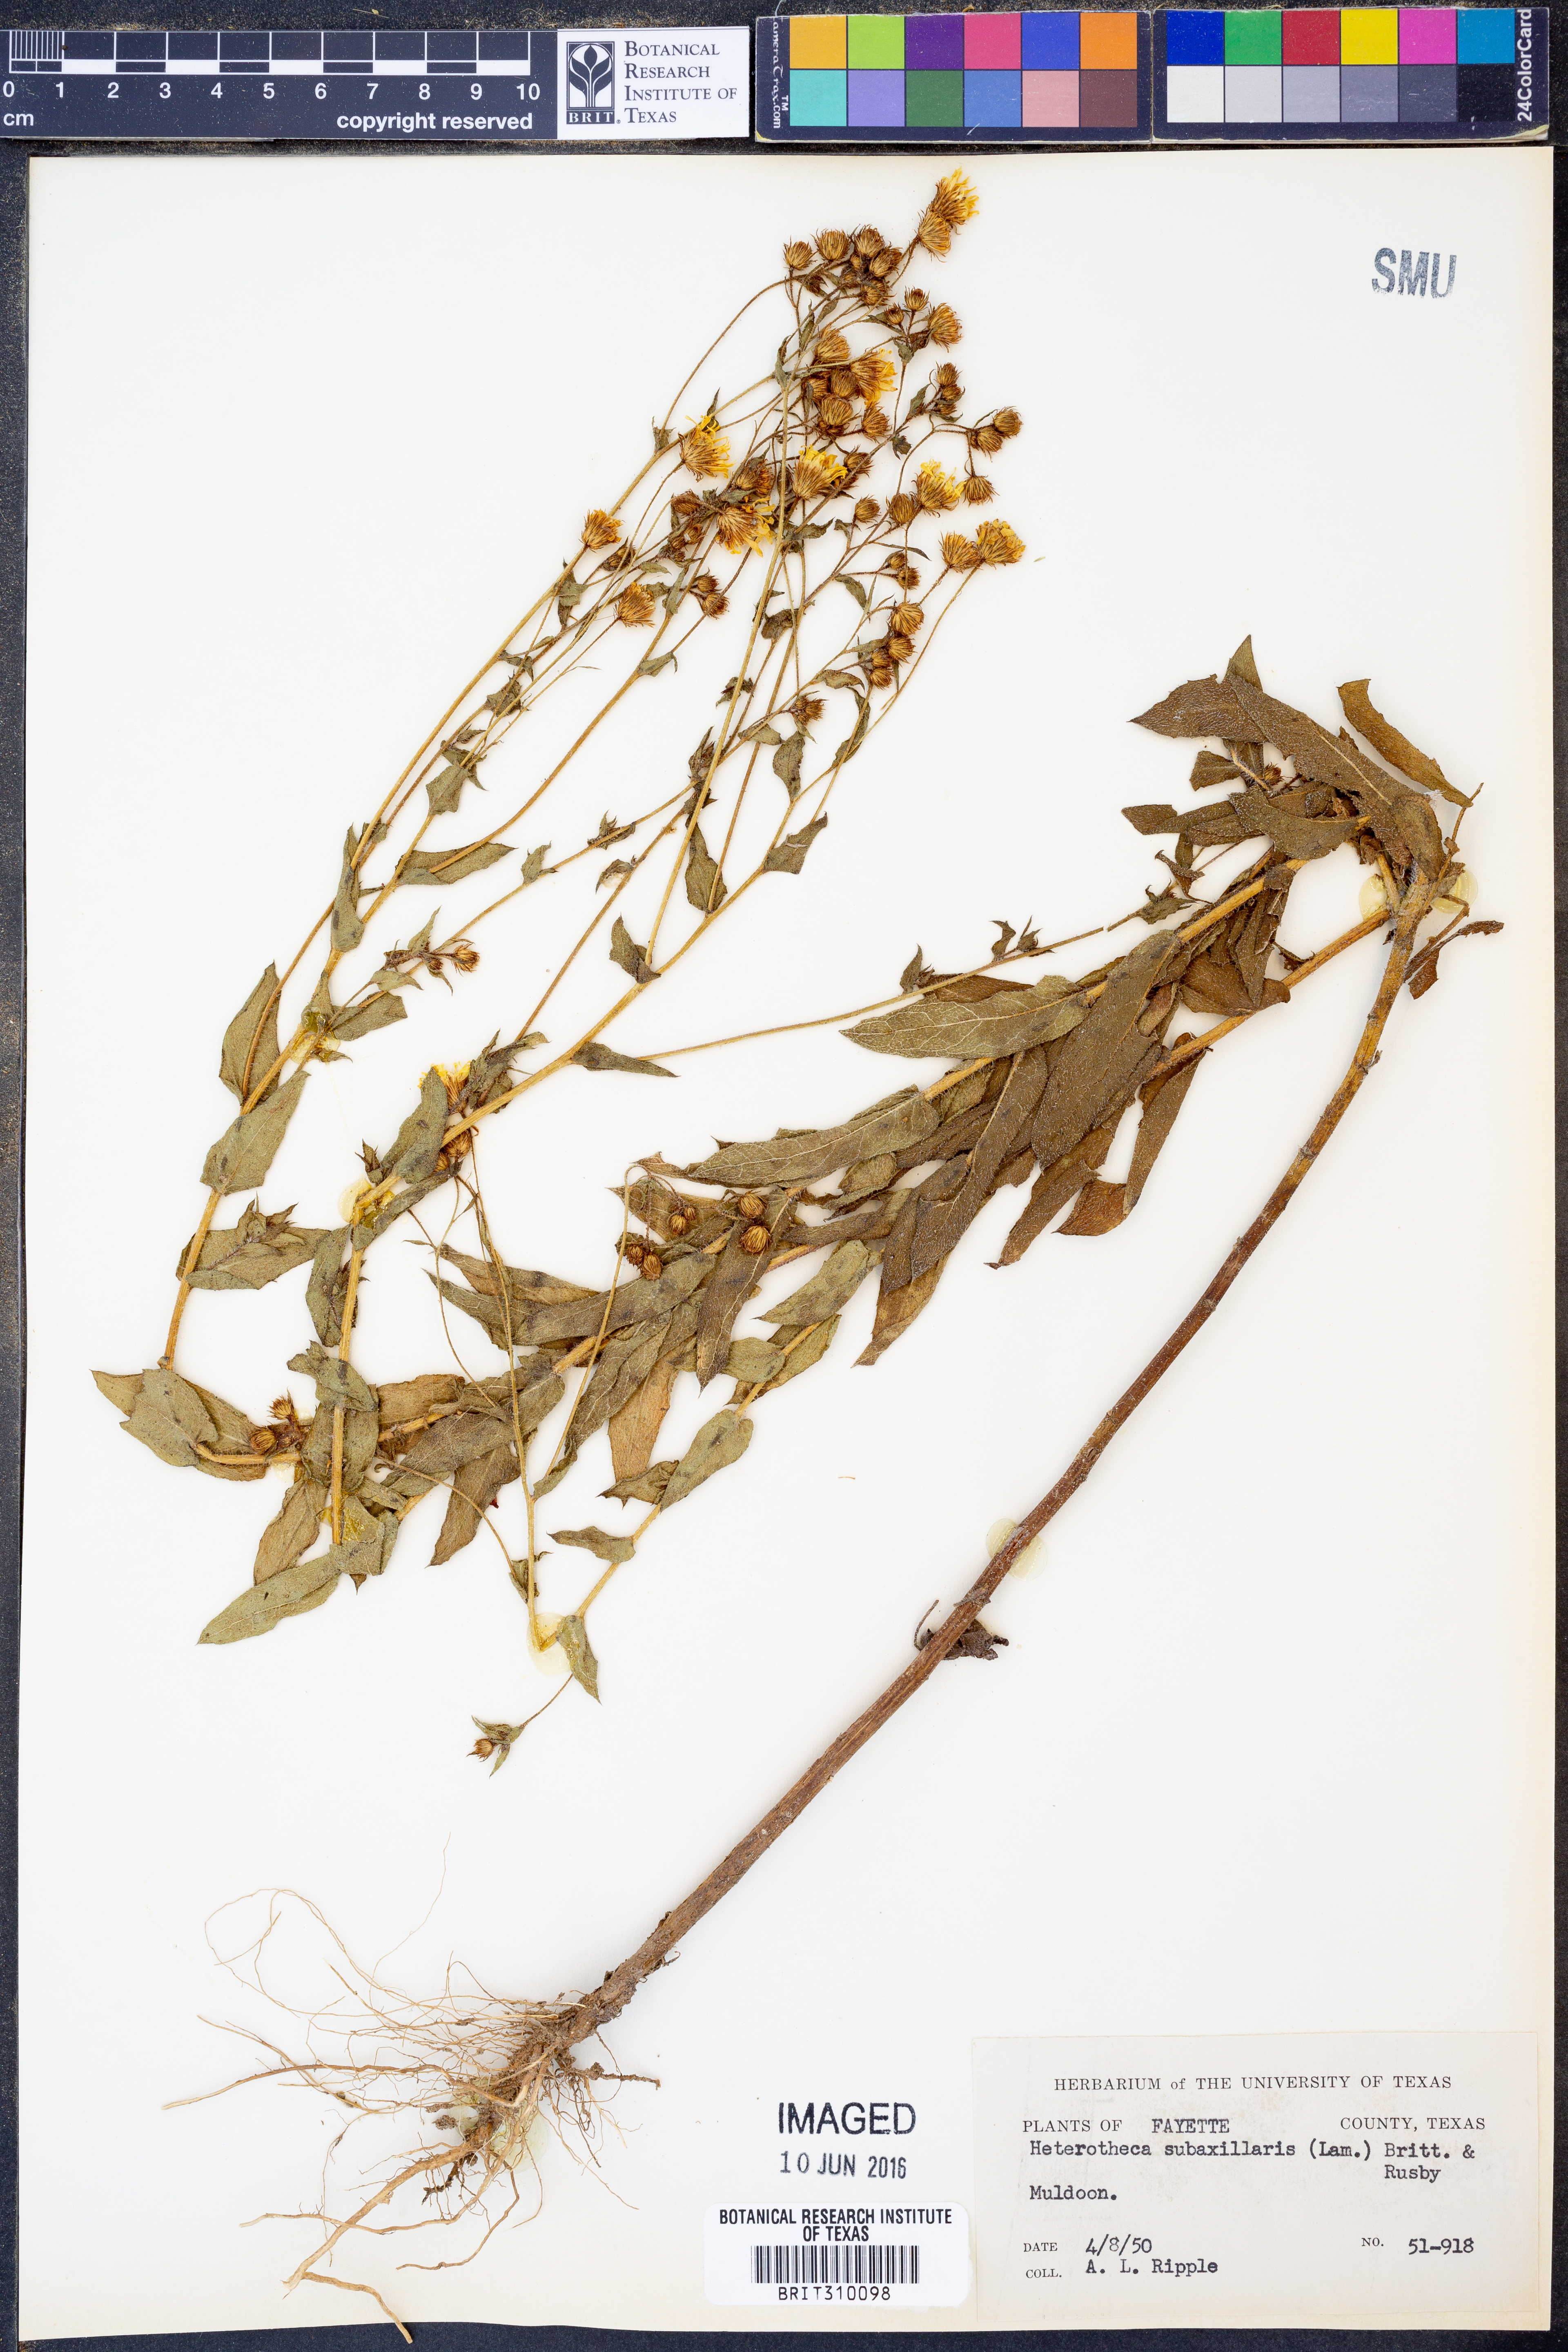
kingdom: Plantae
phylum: Tracheophyta
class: Magnoliopsida
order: Asterales
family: Asteraceae
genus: Heterotheca
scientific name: Heterotheca subaxillaris
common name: Camphorweed
